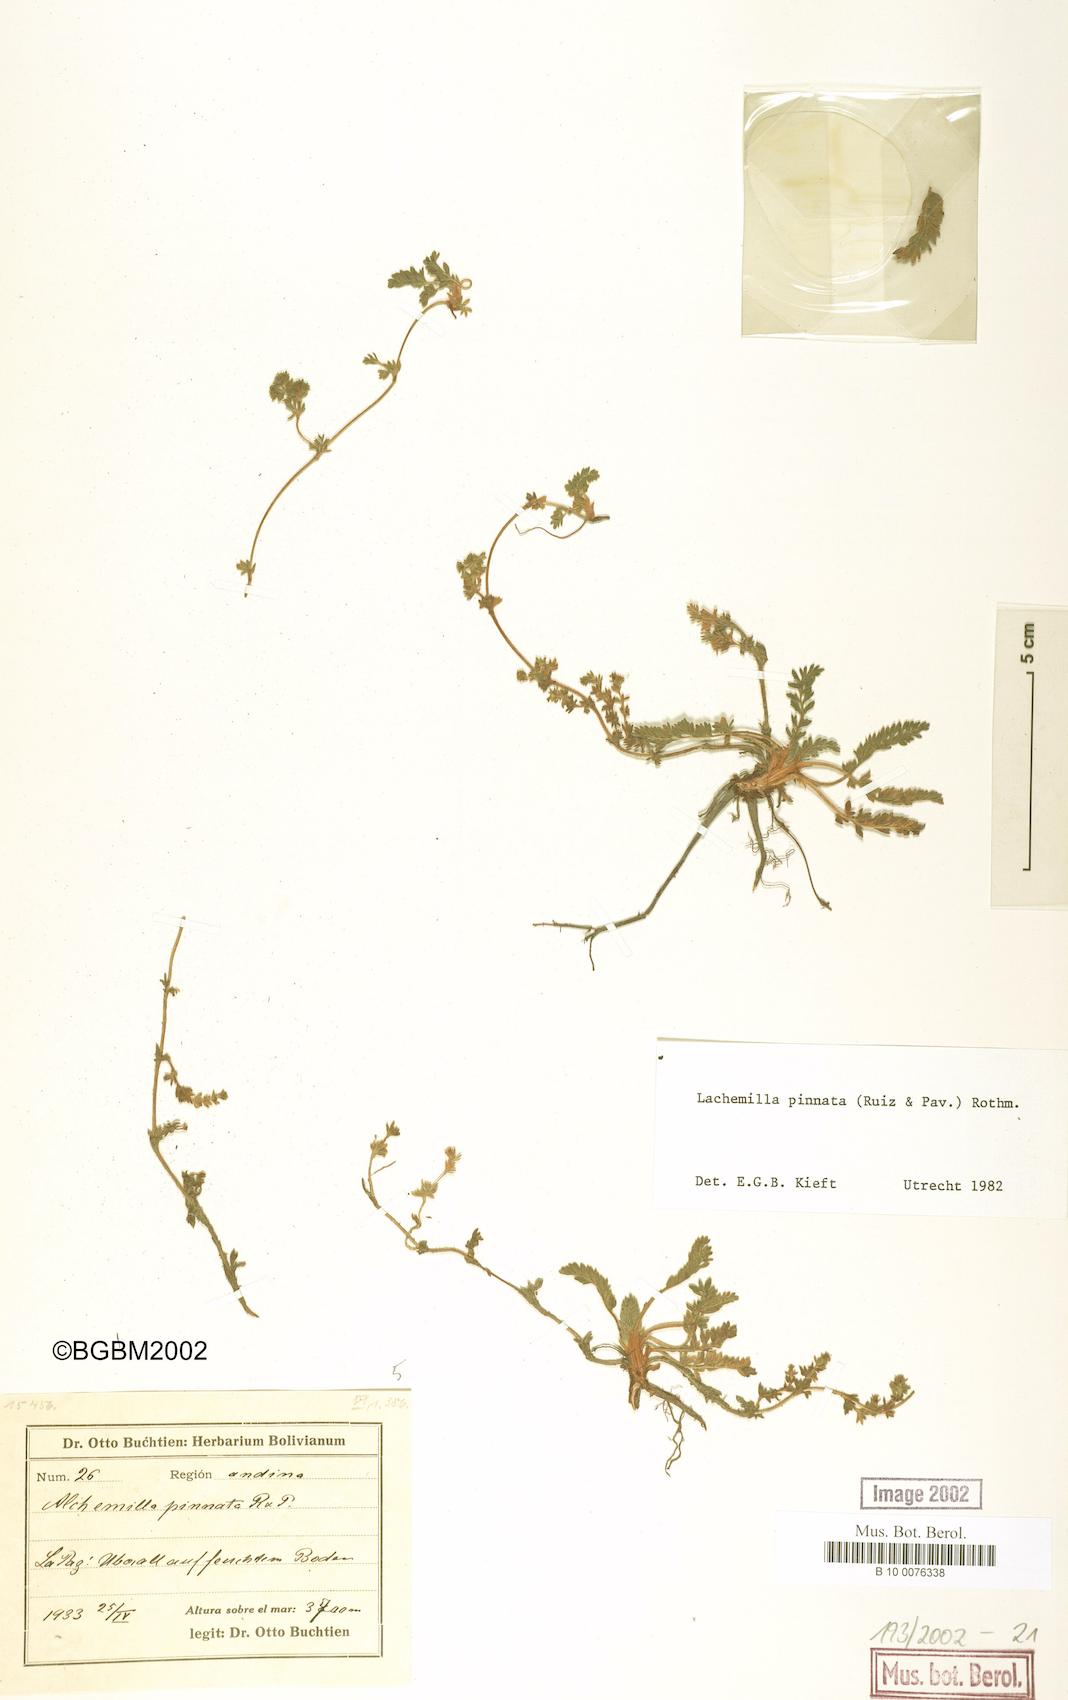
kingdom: Plantae
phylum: Tracheophyta
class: Magnoliopsida
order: Rosales
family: Rosaceae
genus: Lachemilla
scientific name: Lachemilla pinnata
